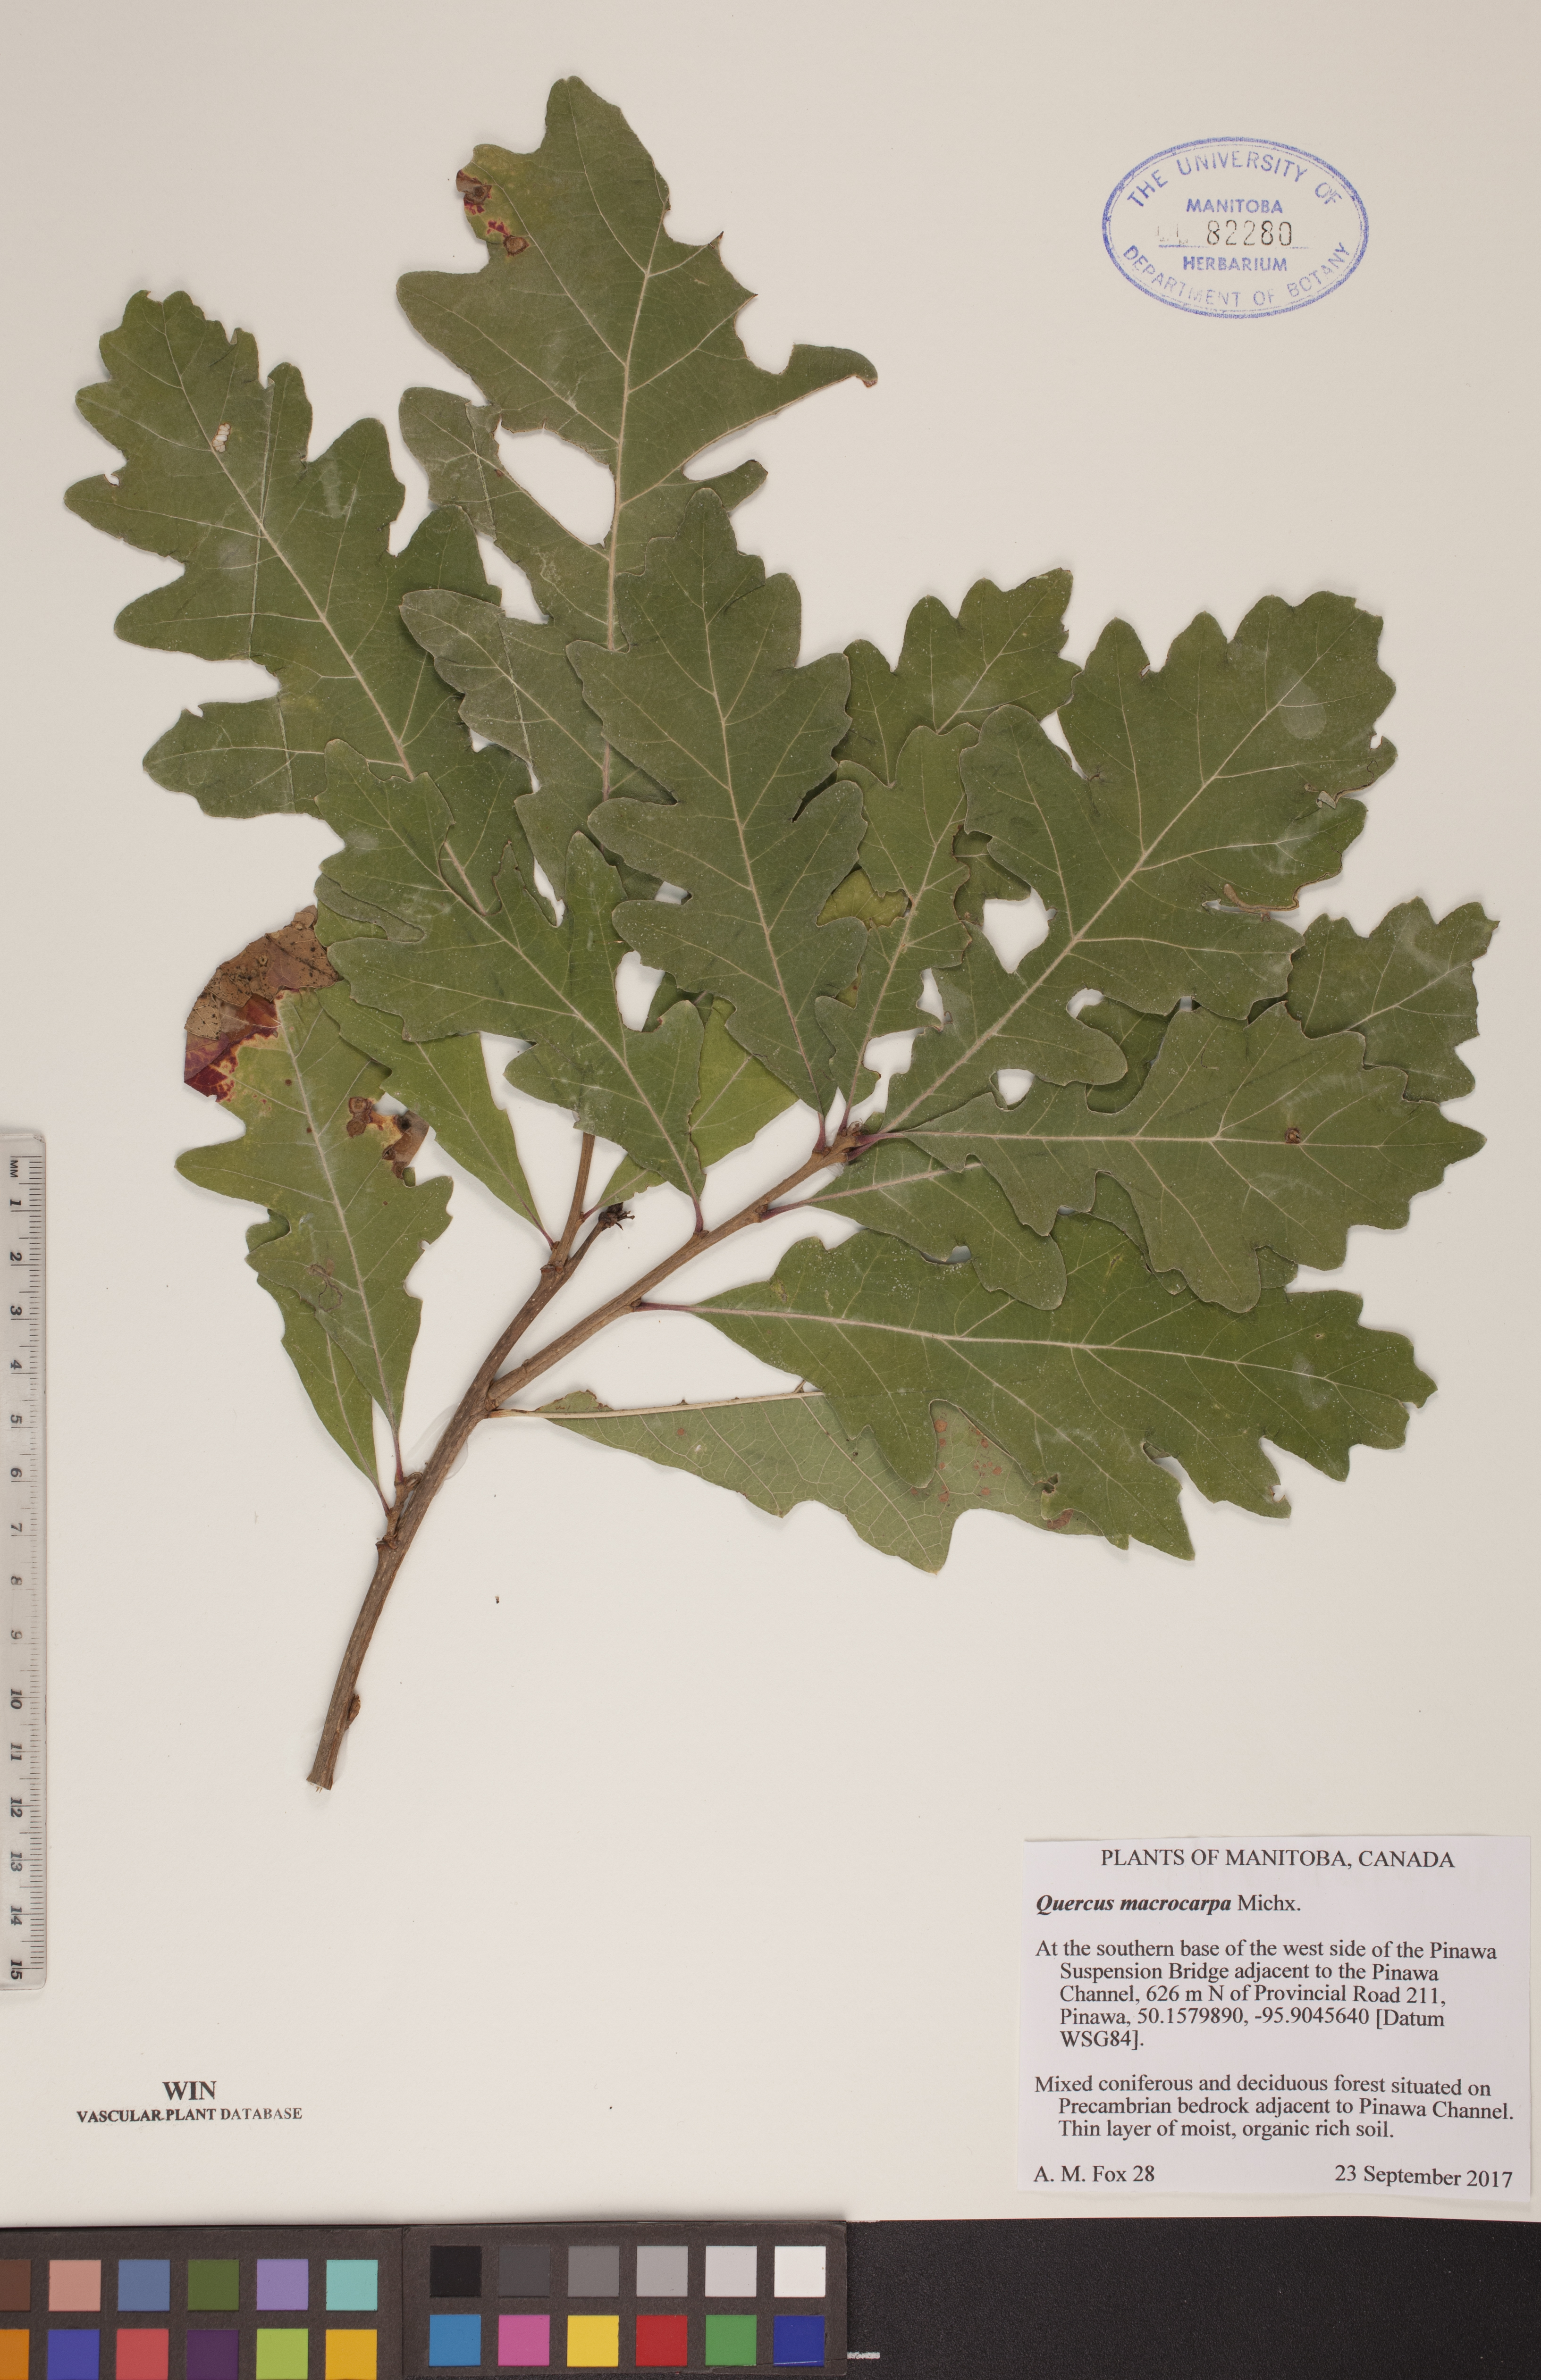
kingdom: Plantae
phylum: Tracheophyta
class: Magnoliopsida
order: Fagales
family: Fagaceae
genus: Quercus
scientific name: Quercus macrocarpa
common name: Bur oak
